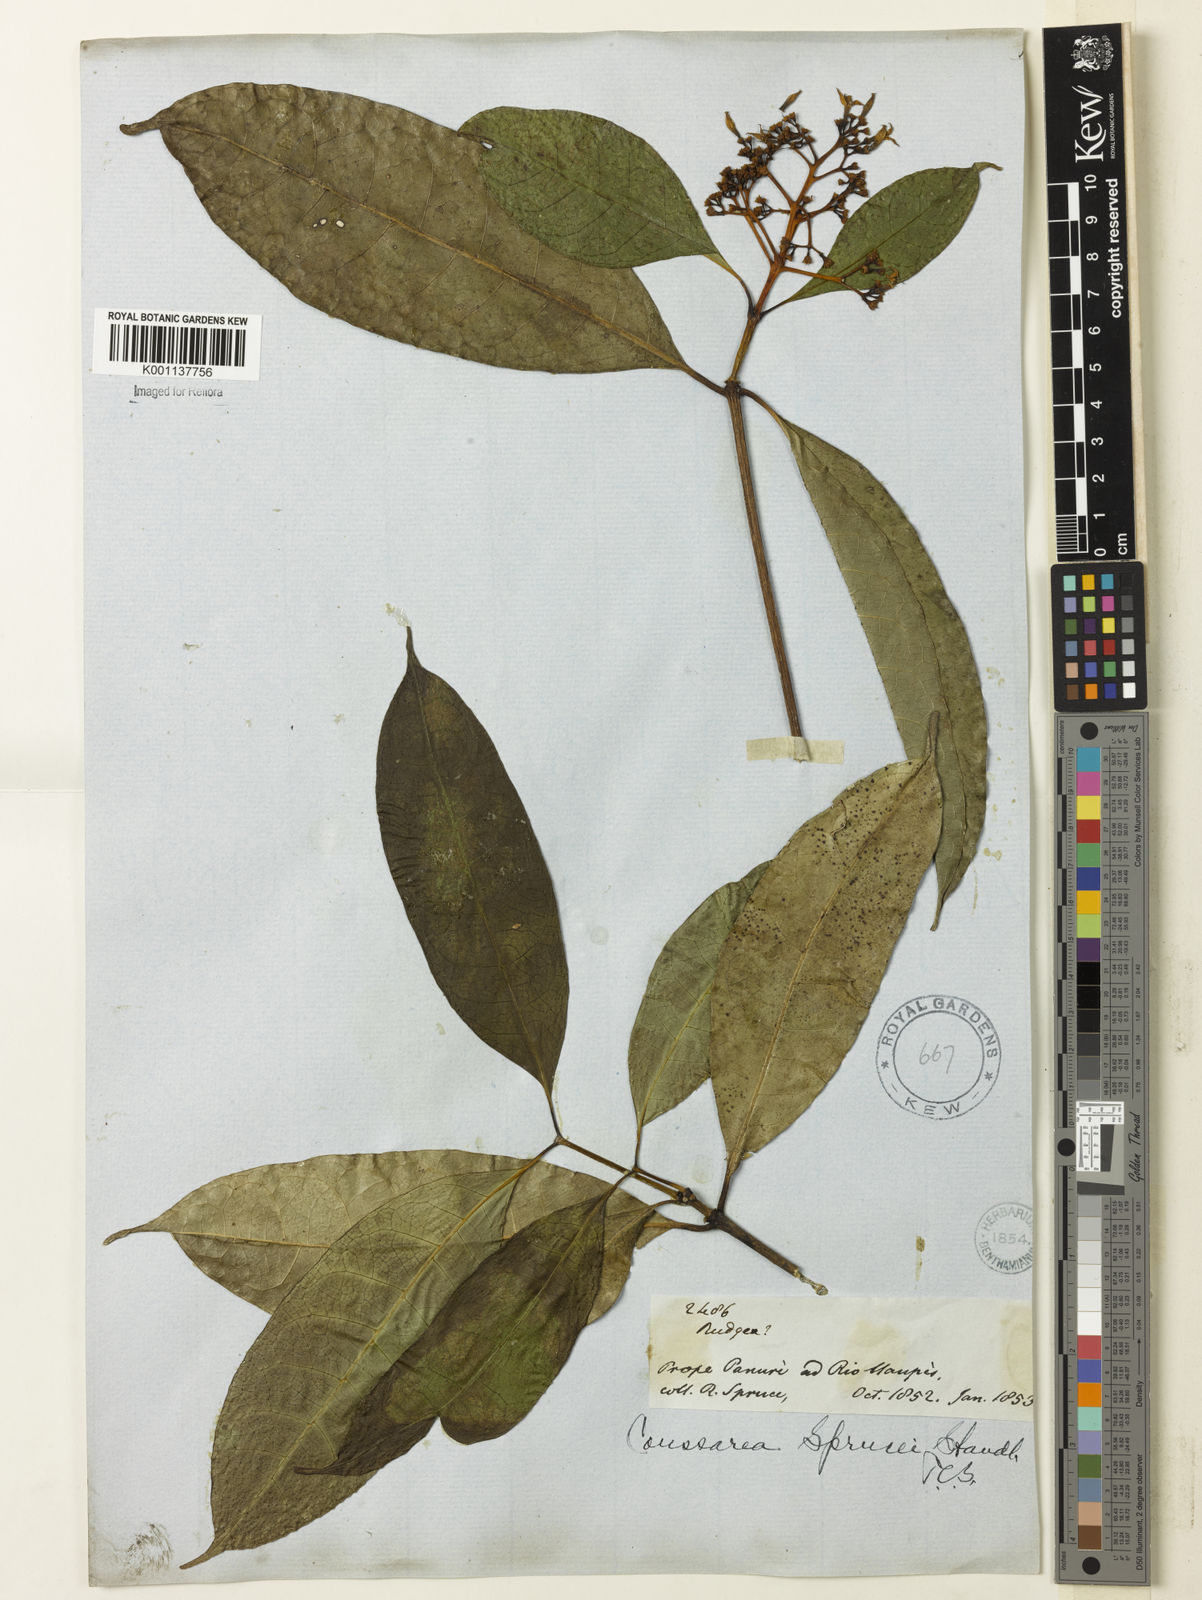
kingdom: Plantae
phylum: Tracheophyta
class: Magnoliopsida
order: Gentianales
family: Rubiaceae
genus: Coussarea
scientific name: Coussarea violacea
